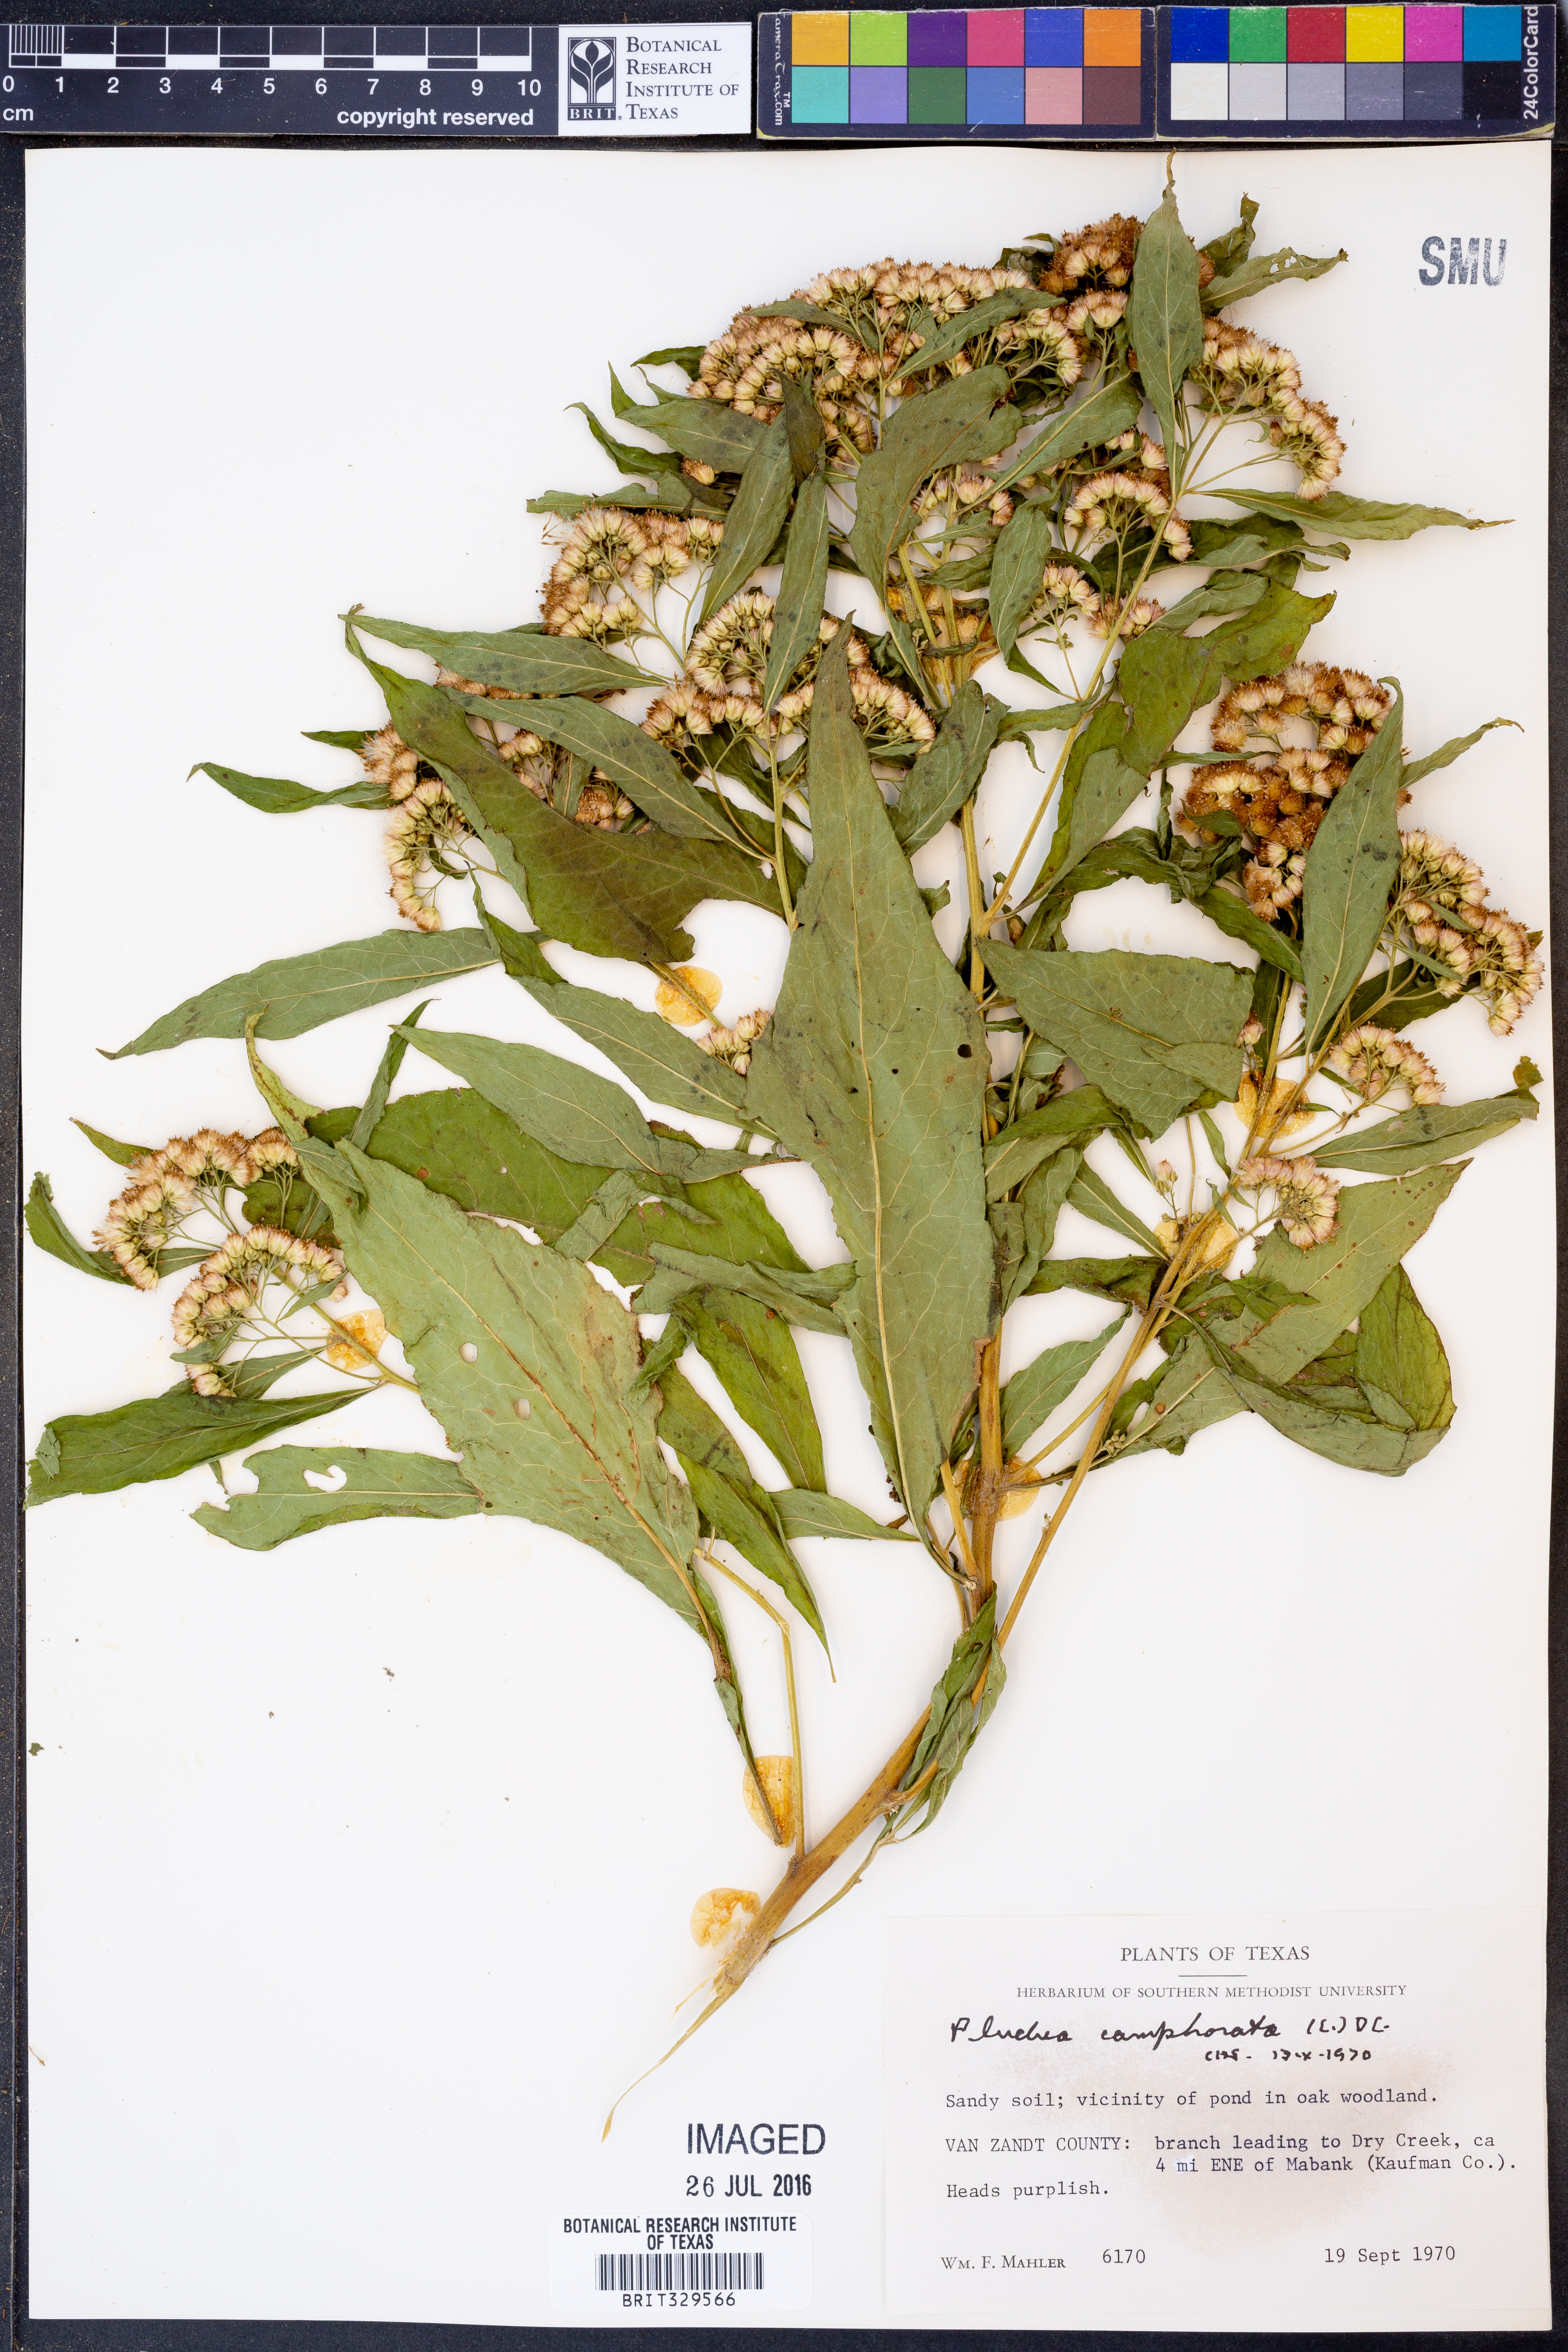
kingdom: Plantae
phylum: Tracheophyta
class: Magnoliopsida
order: Asterales
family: Asteraceae
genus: Pluchea
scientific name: Pluchea camphorata
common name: Camphor pluchea
